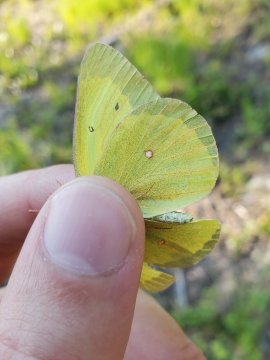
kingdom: Animalia
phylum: Arthropoda
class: Insecta
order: Lepidoptera
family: Pieridae
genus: Colias
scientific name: Colias christina
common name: Christina Sulphur
